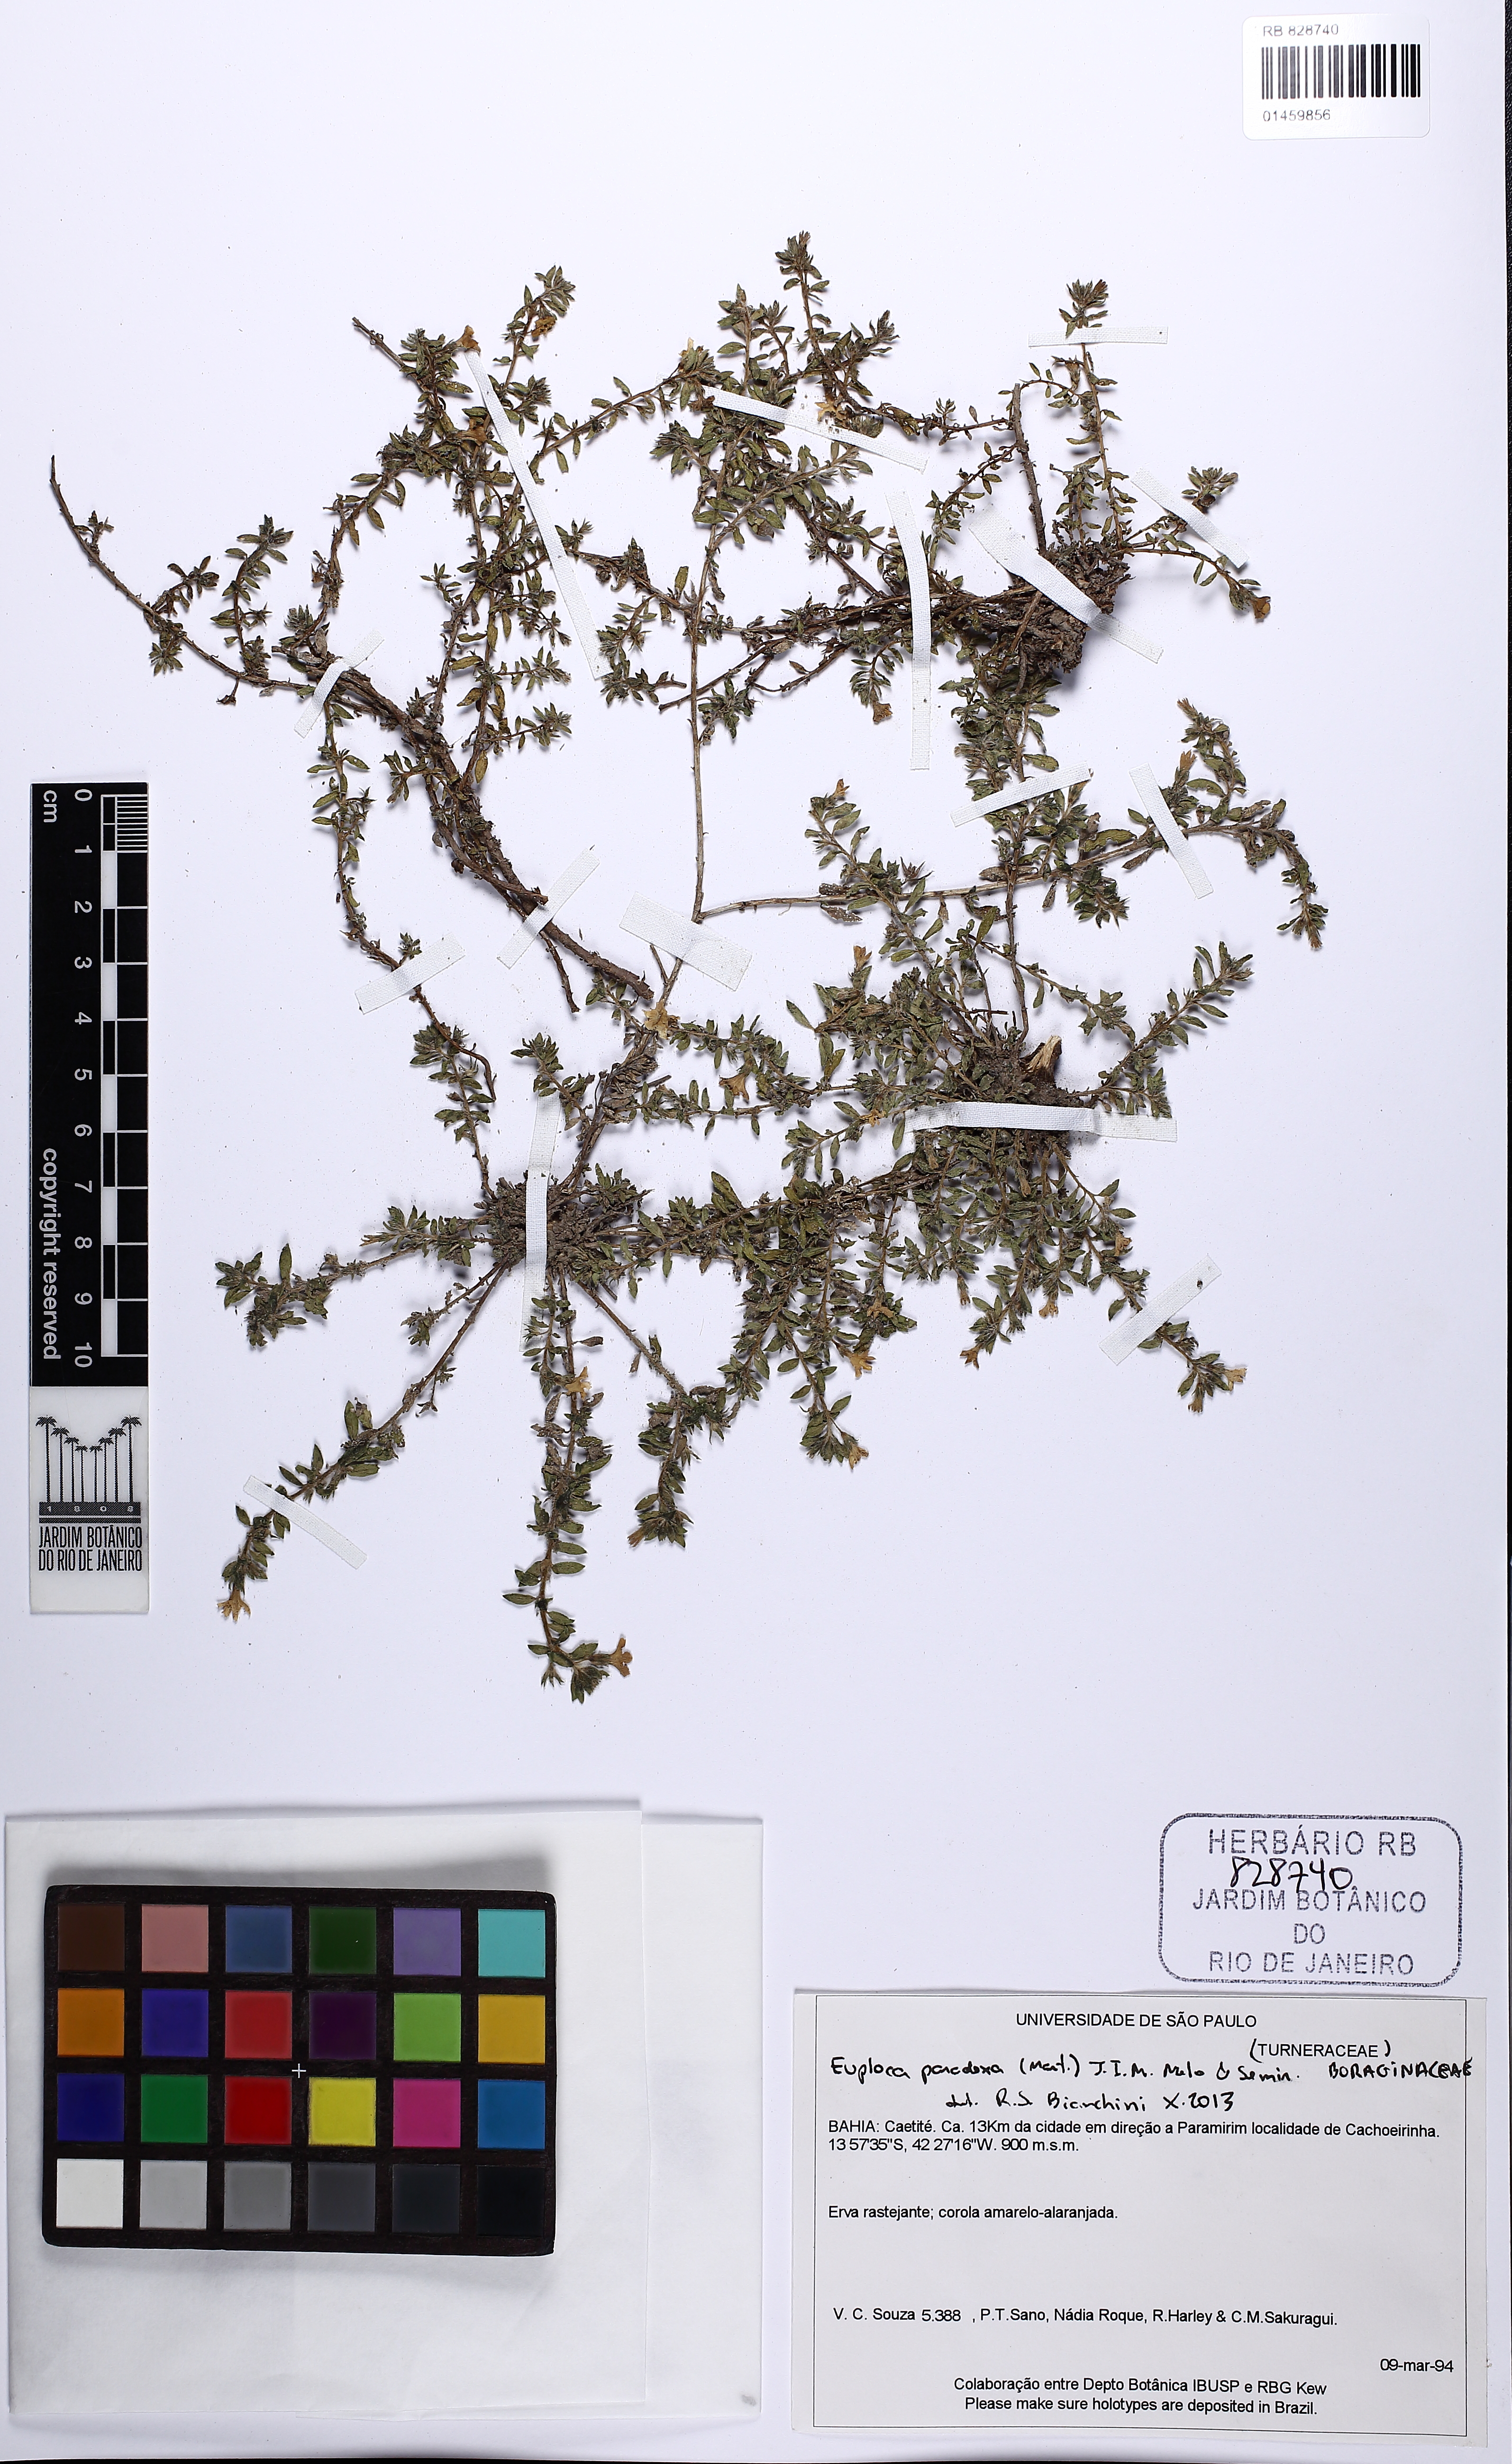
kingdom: Plantae
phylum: Tracheophyta
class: Magnoliopsida
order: Boraginales
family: Heliotropiaceae
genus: Euploca
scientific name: Euploca paradoxa
